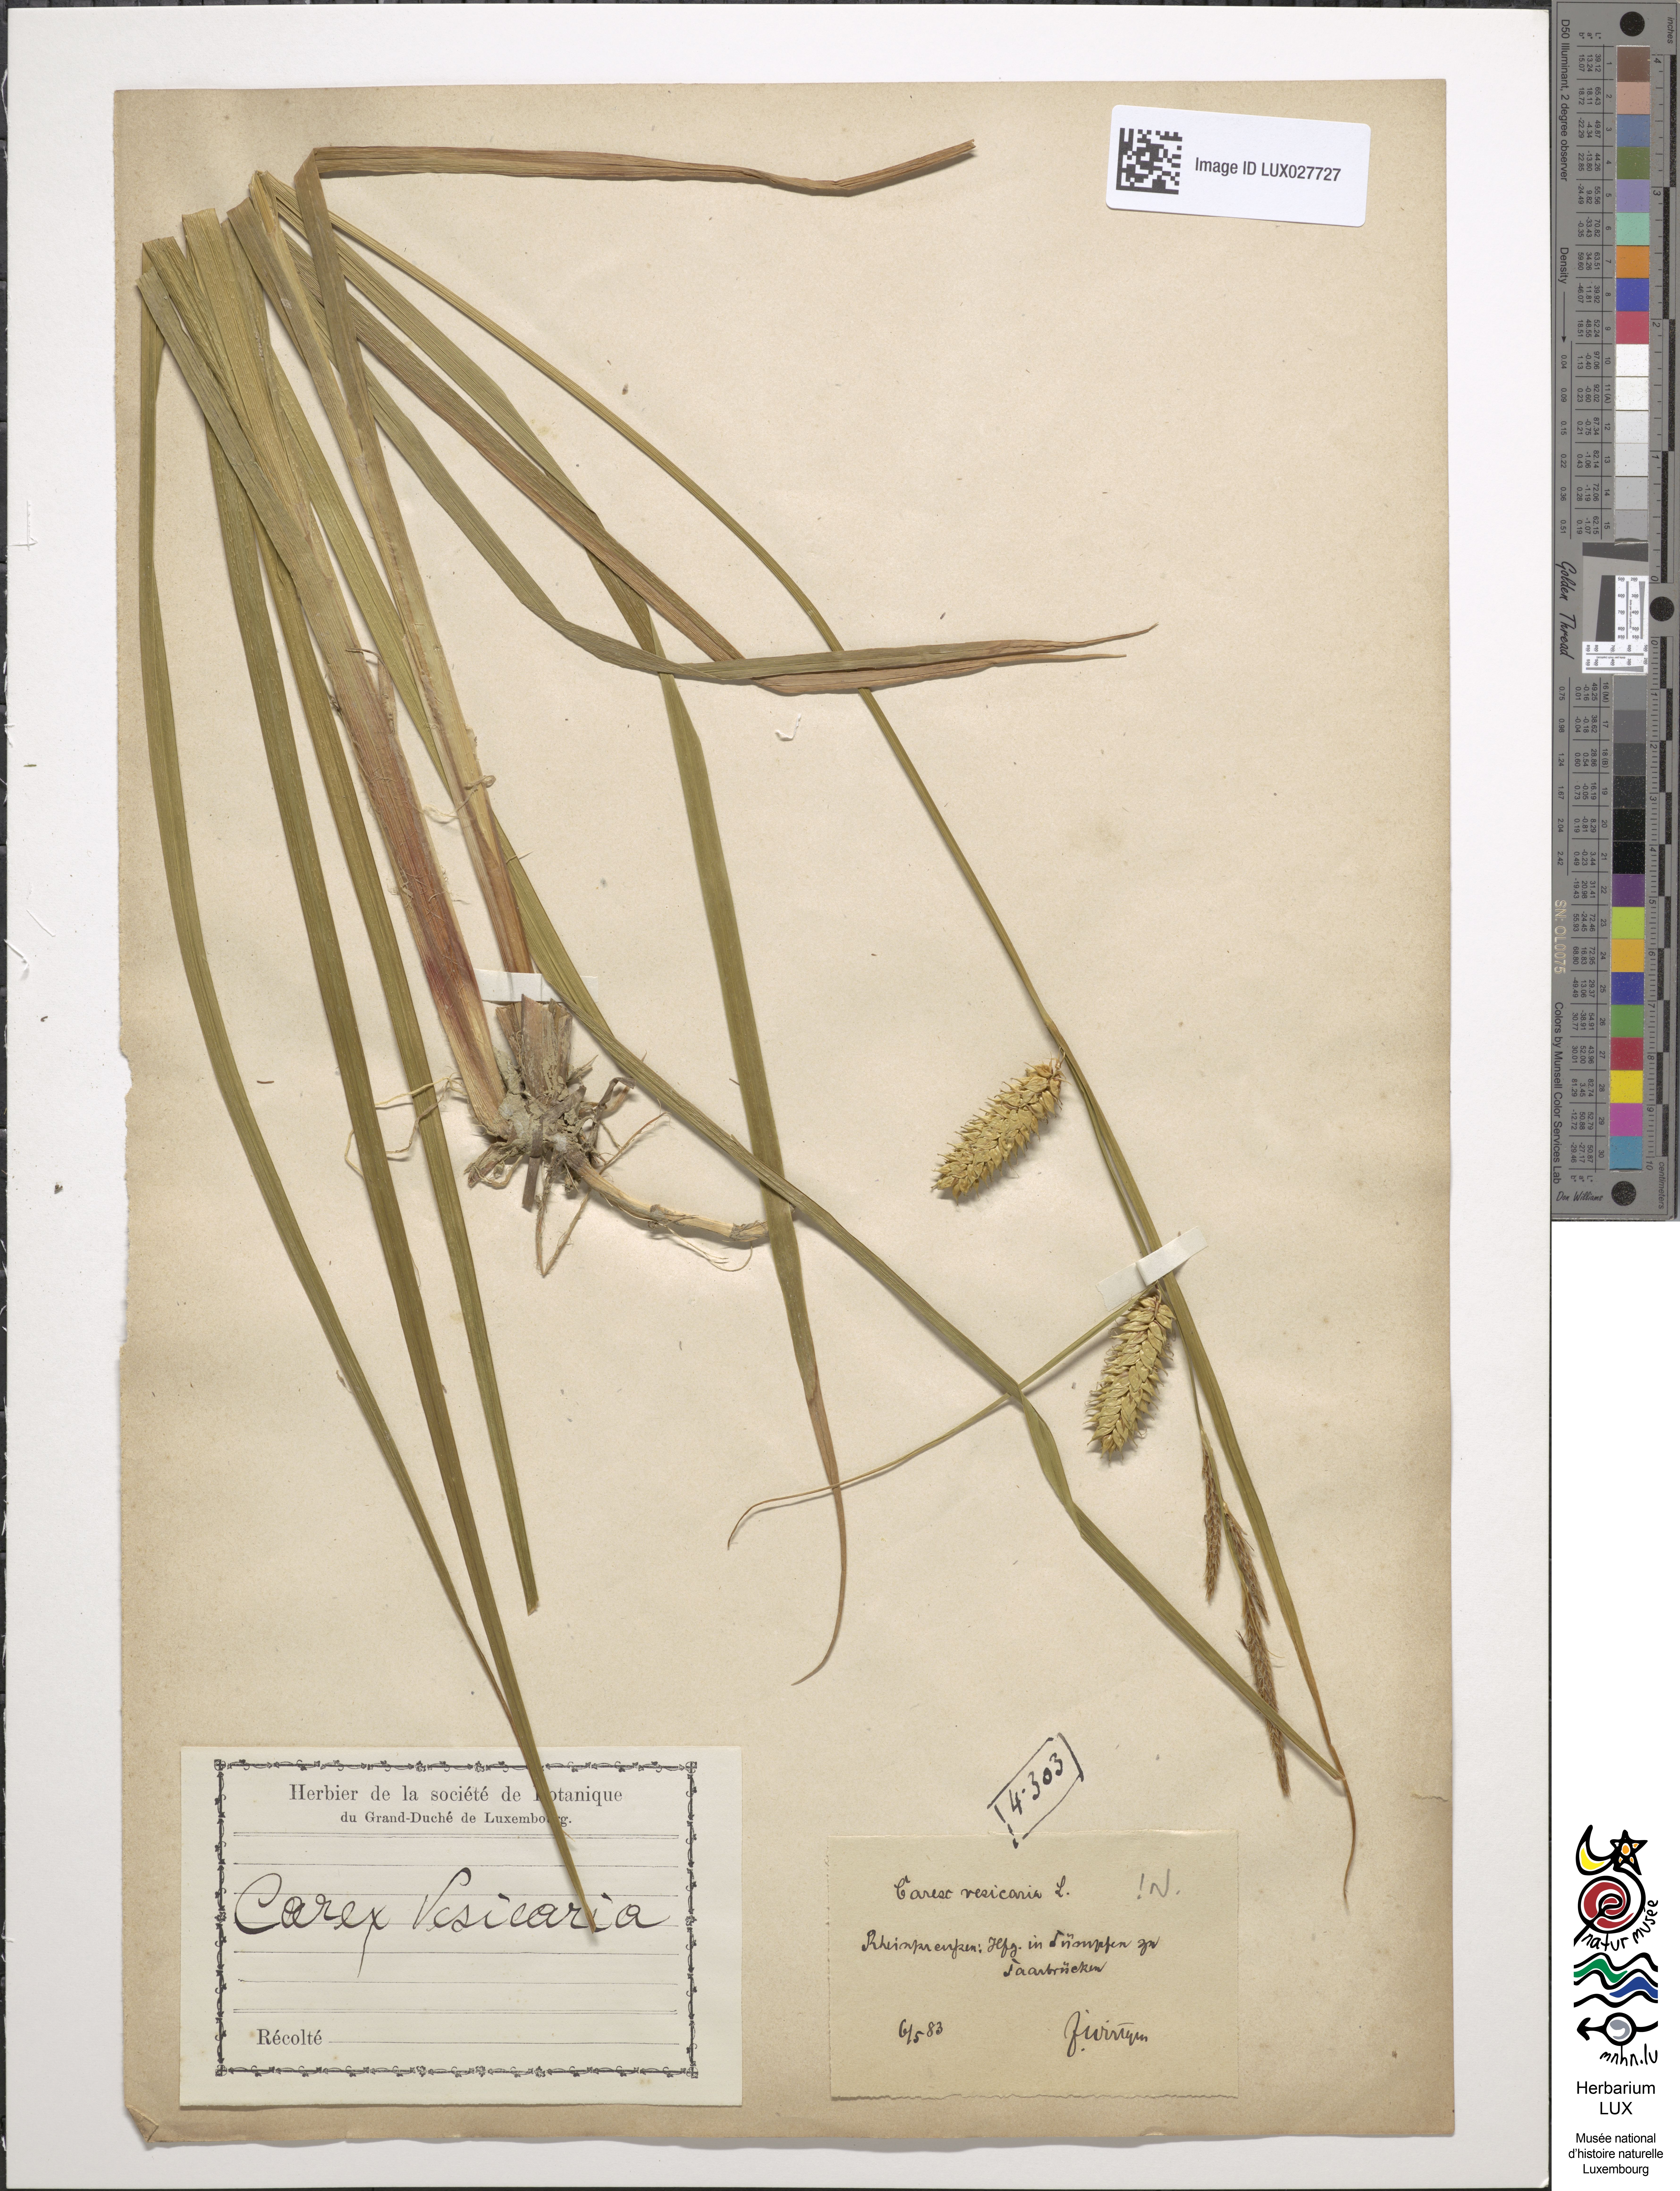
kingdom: Plantae
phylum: Tracheophyta
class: Liliopsida
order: Poales
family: Cyperaceae
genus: Carex
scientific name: Carex vesicaria
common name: Bladder-sedge
